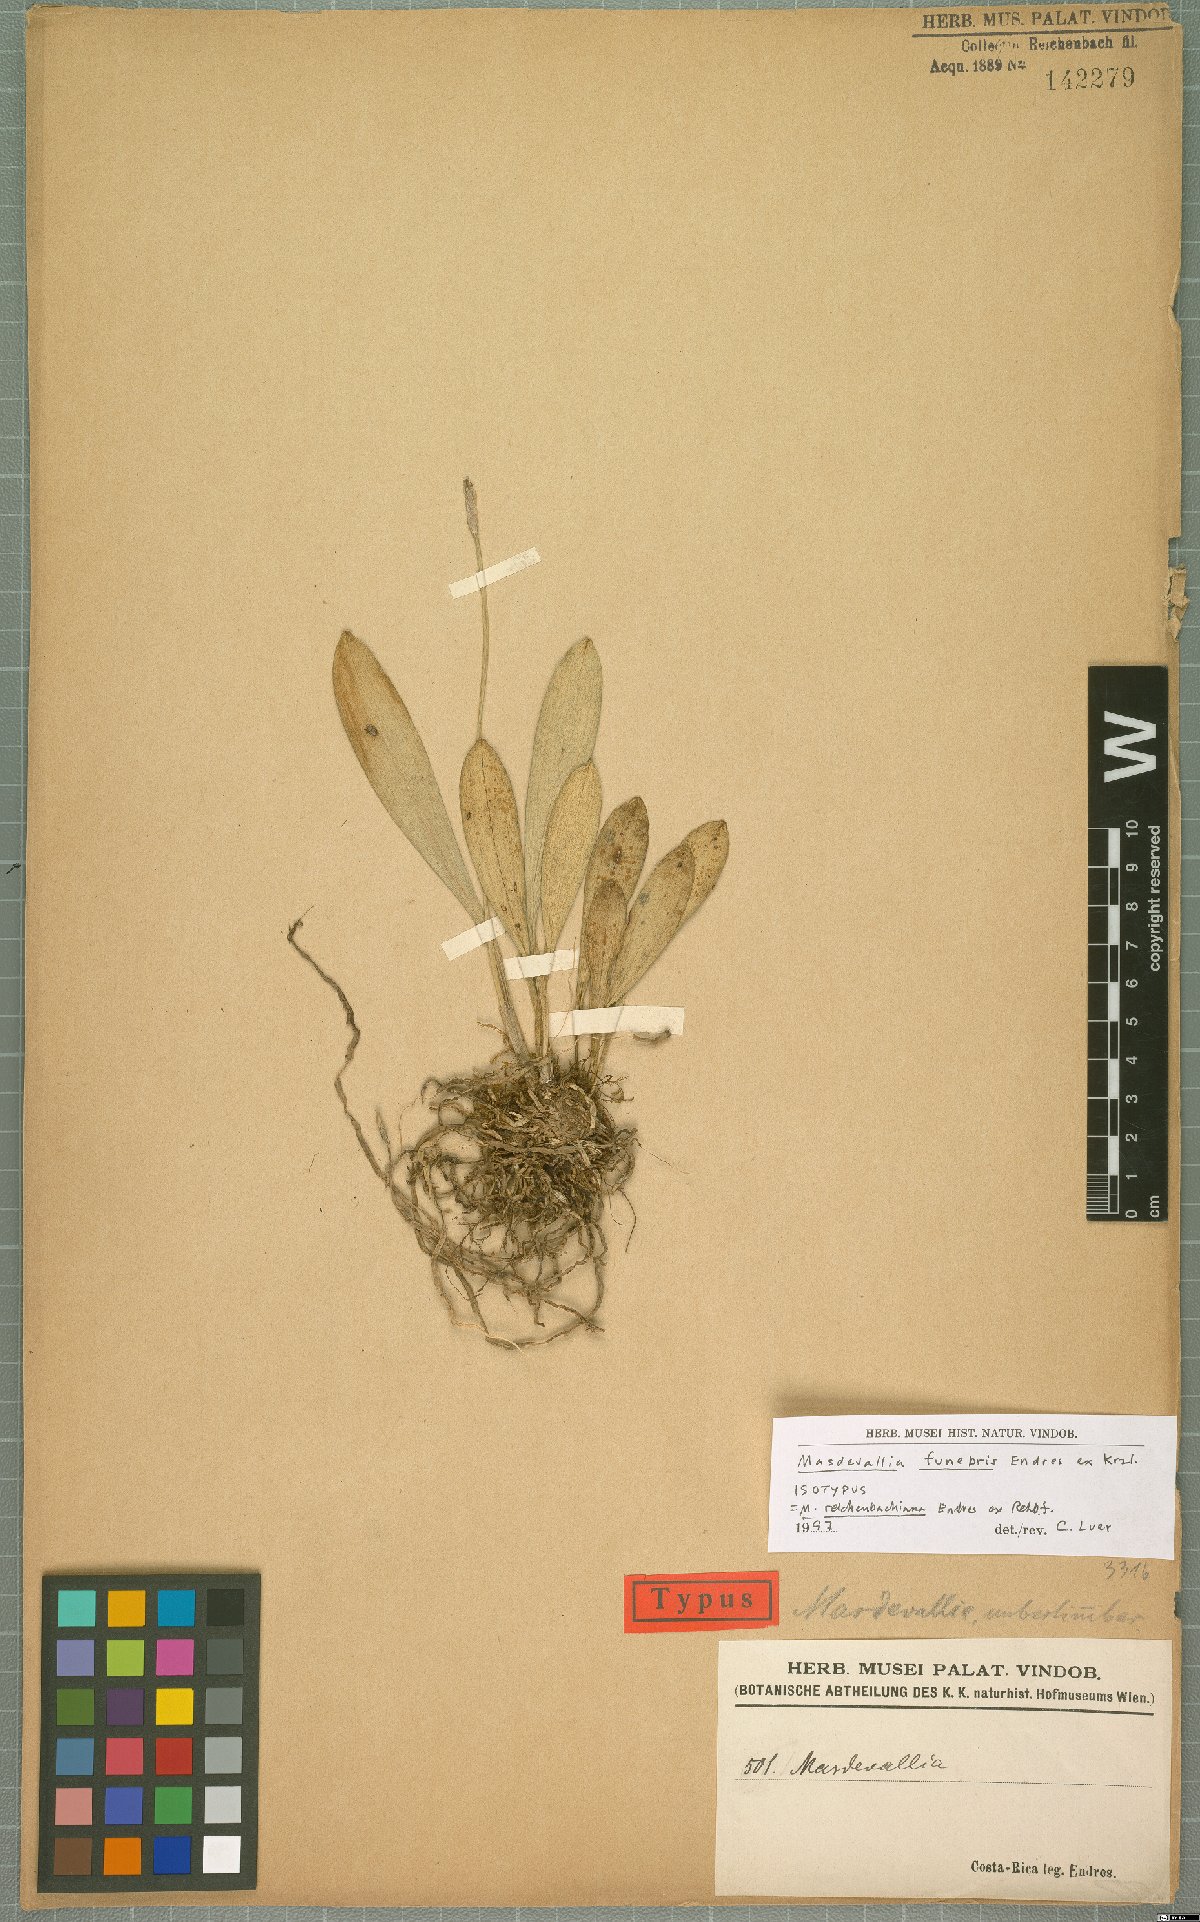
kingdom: Plantae
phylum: Tracheophyta
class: Liliopsida
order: Asparagales
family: Orchidaceae
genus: Masdevallia
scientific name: Masdevallia reichenbachiana
